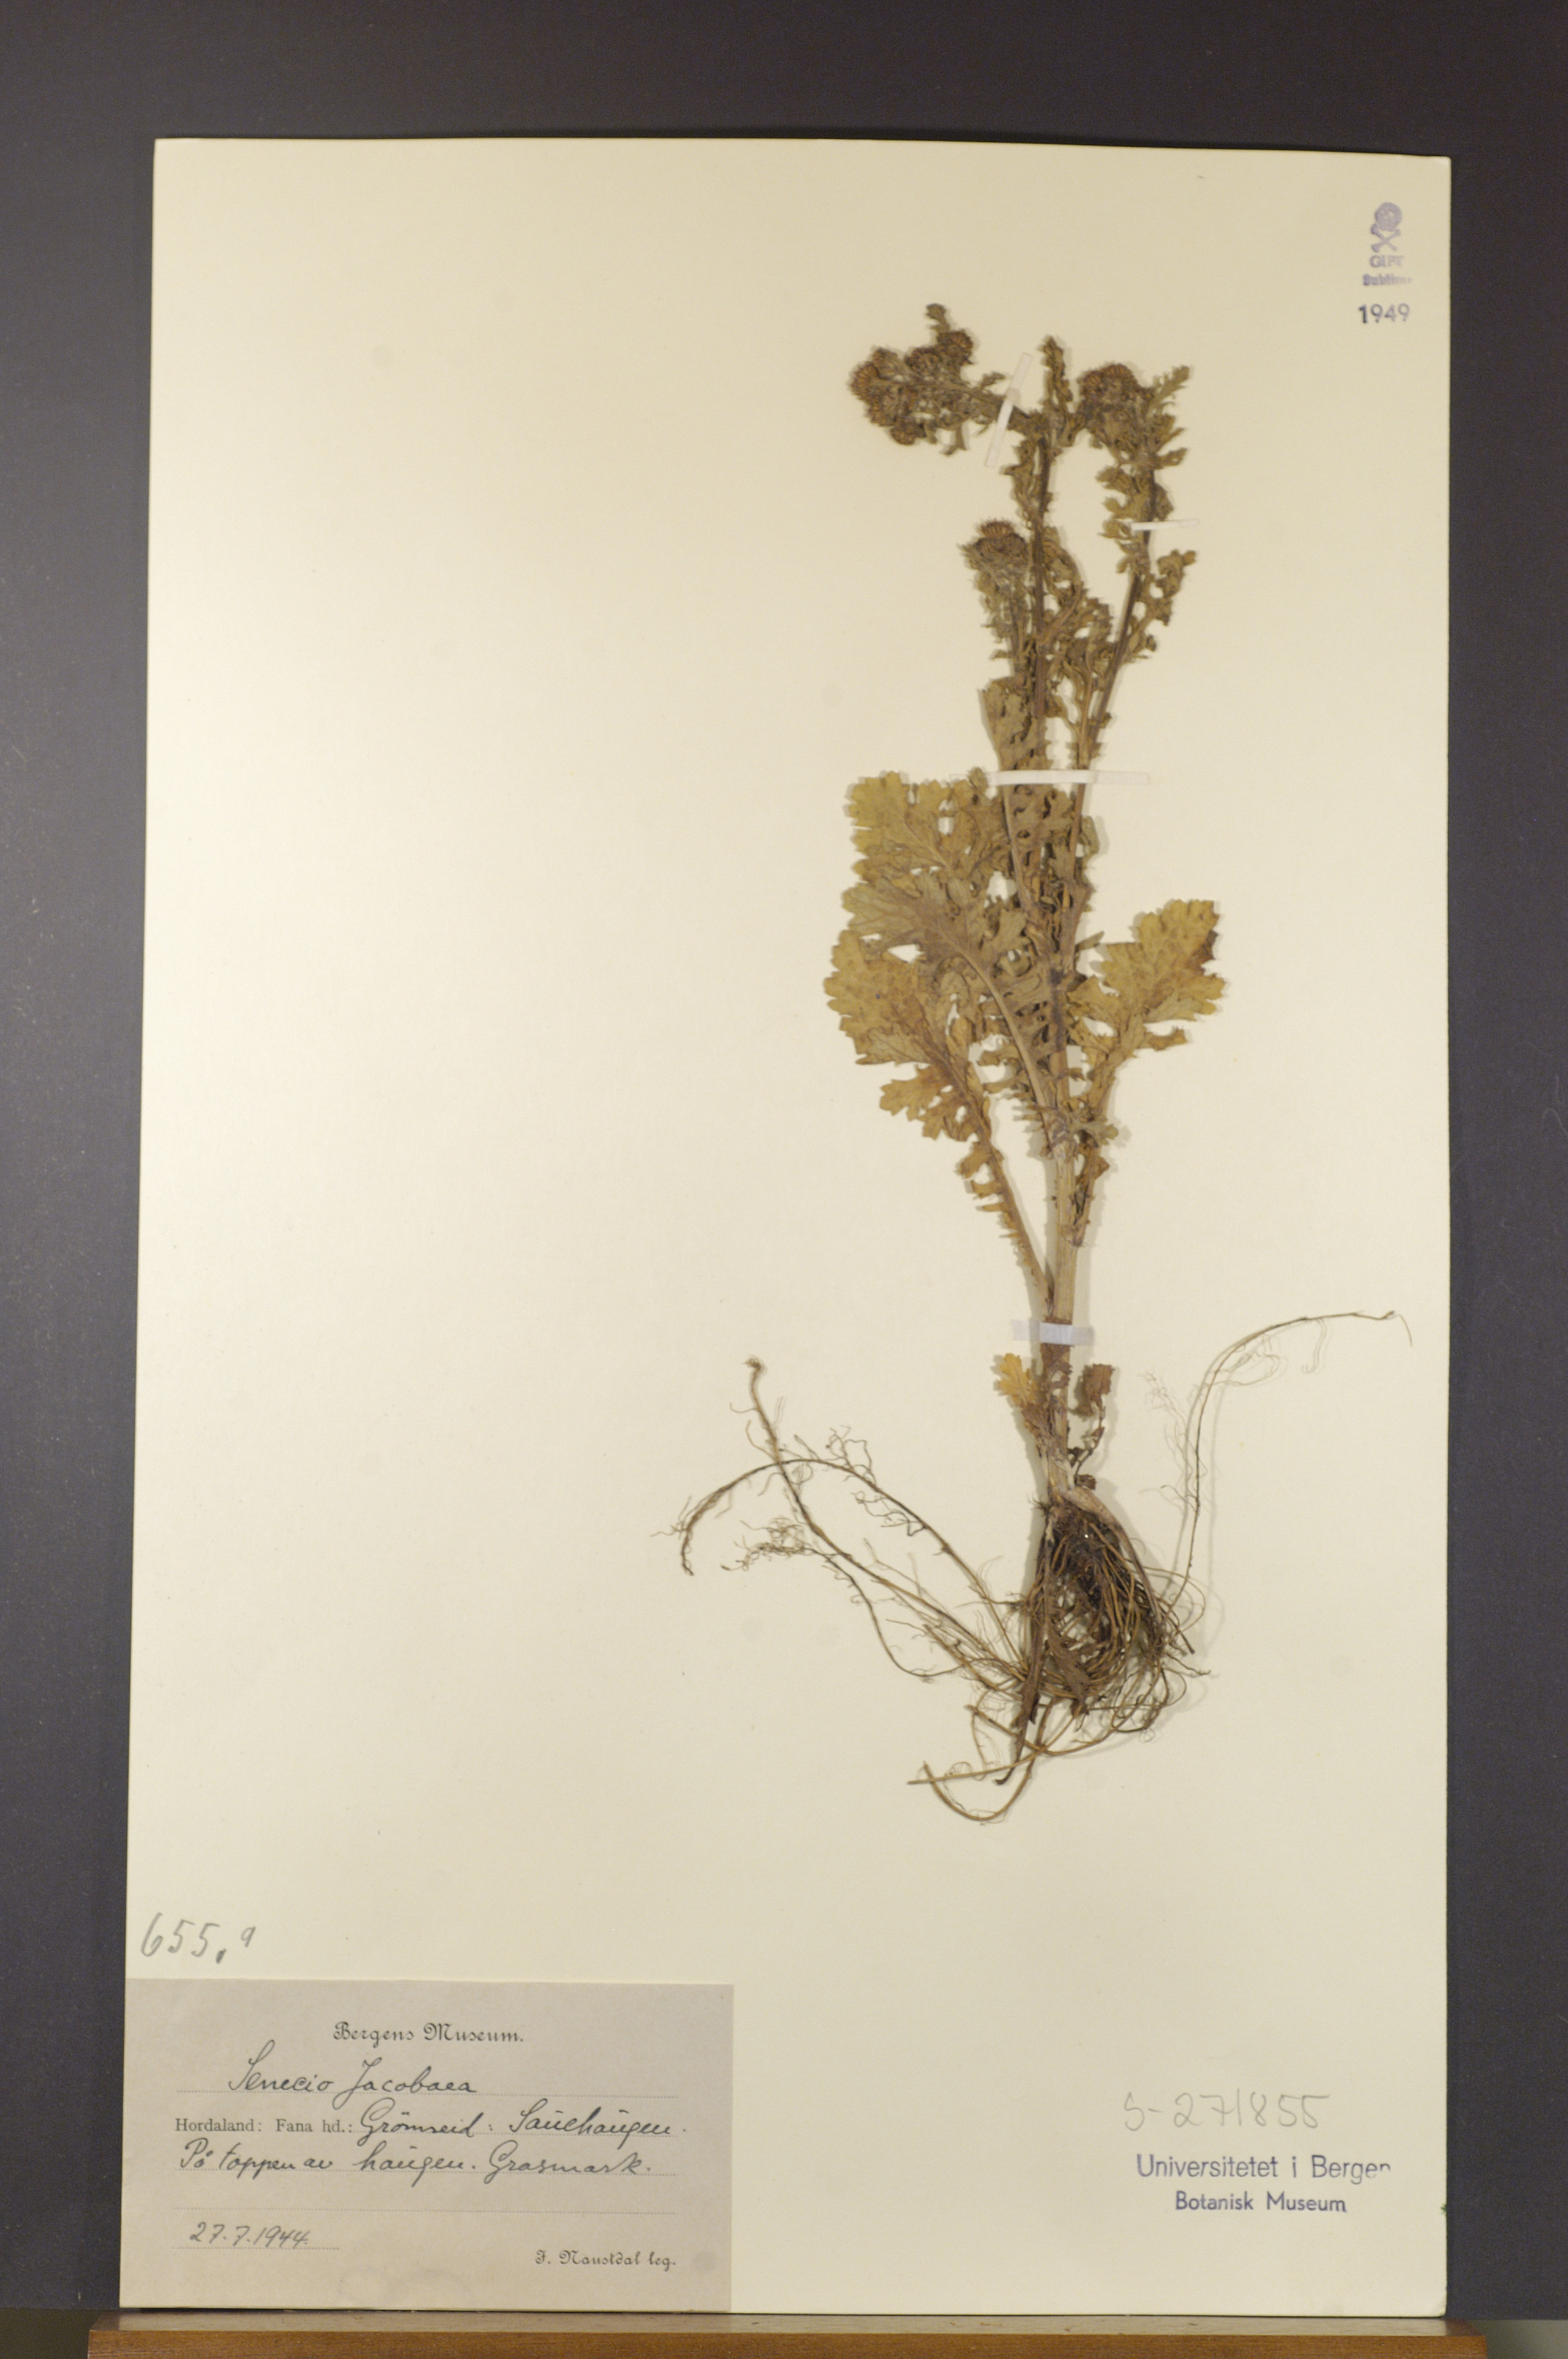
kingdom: Plantae
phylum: Tracheophyta
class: Magnoliopsida
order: Asterales
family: Asteraceae
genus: Jacobaea
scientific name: Jacobaea vulgaris
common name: Stinking willie
